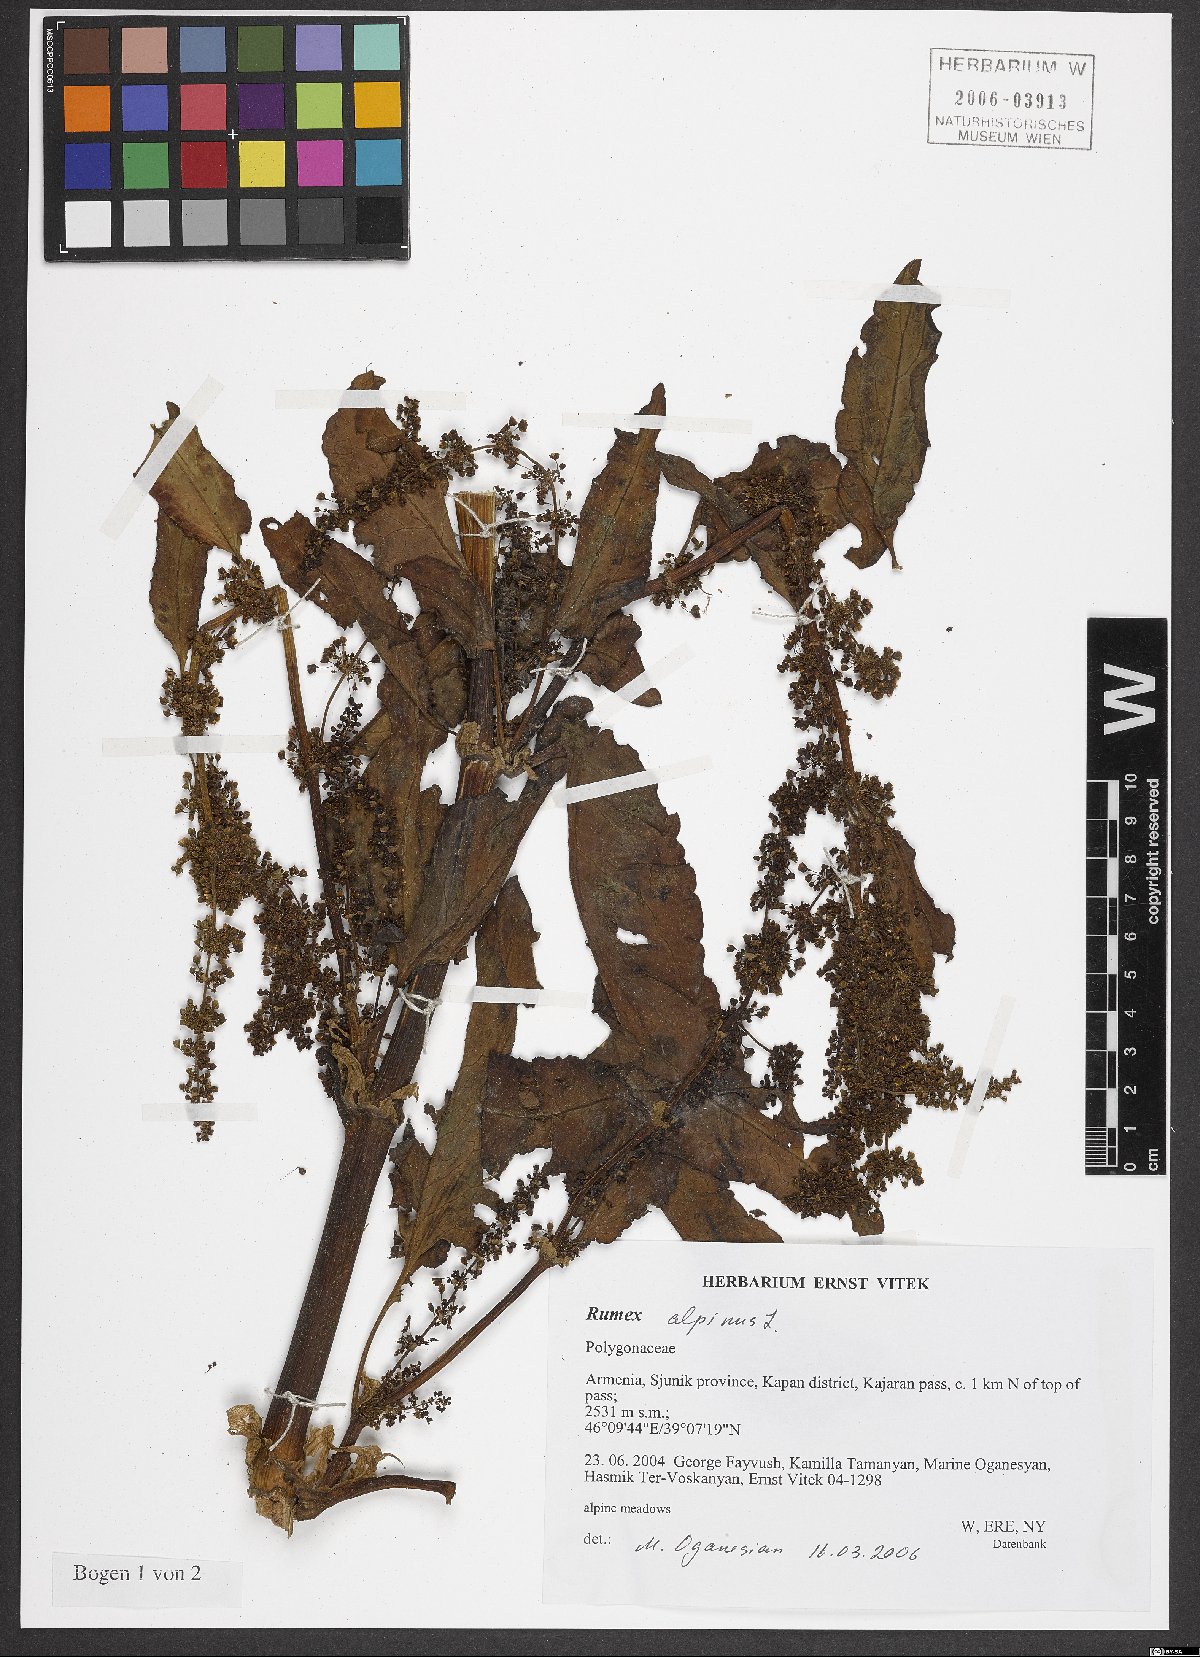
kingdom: Plantae
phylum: Tracheophyta
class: Magnoliopsida
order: Caryophyllales
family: Polygonaceae
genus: Rumex
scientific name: Rumex alpinus
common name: Alpine dock
